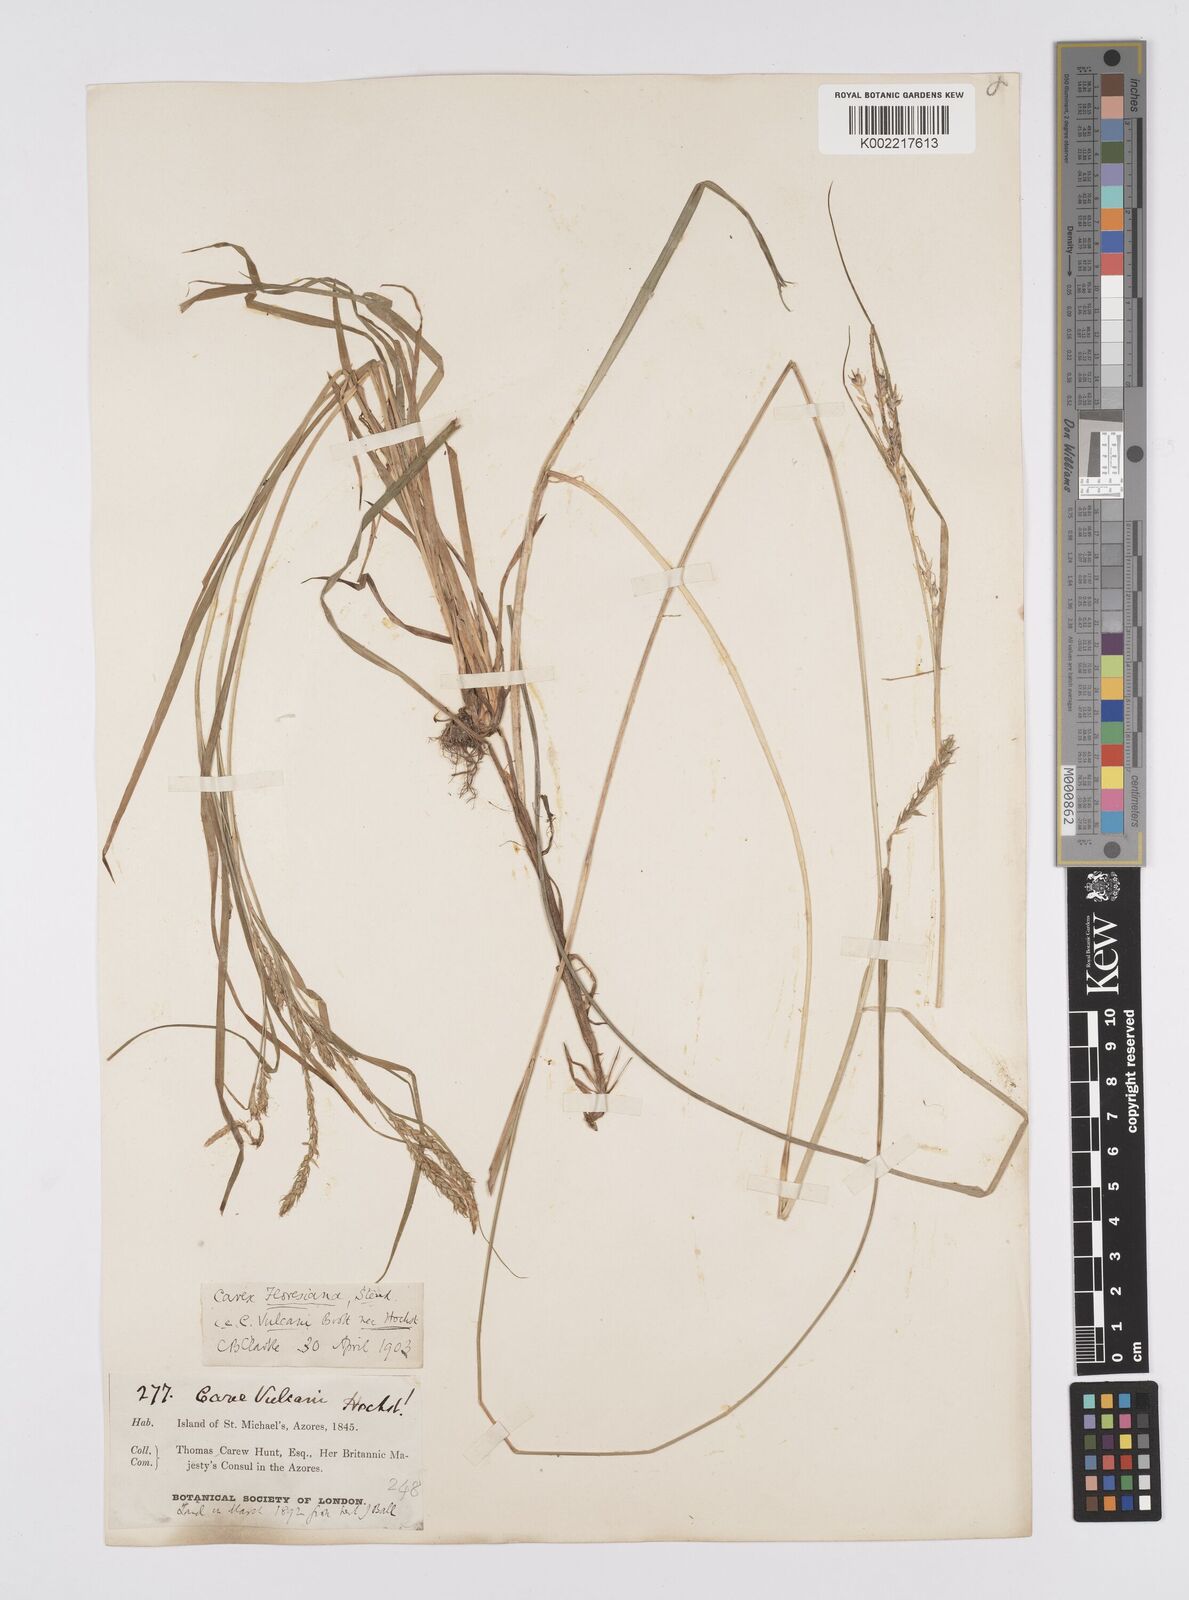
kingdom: Plantae
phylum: Tracheophyta
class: Liliopsida
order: Poales
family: Cyperaceae
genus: Carex
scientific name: Carex vulcani
